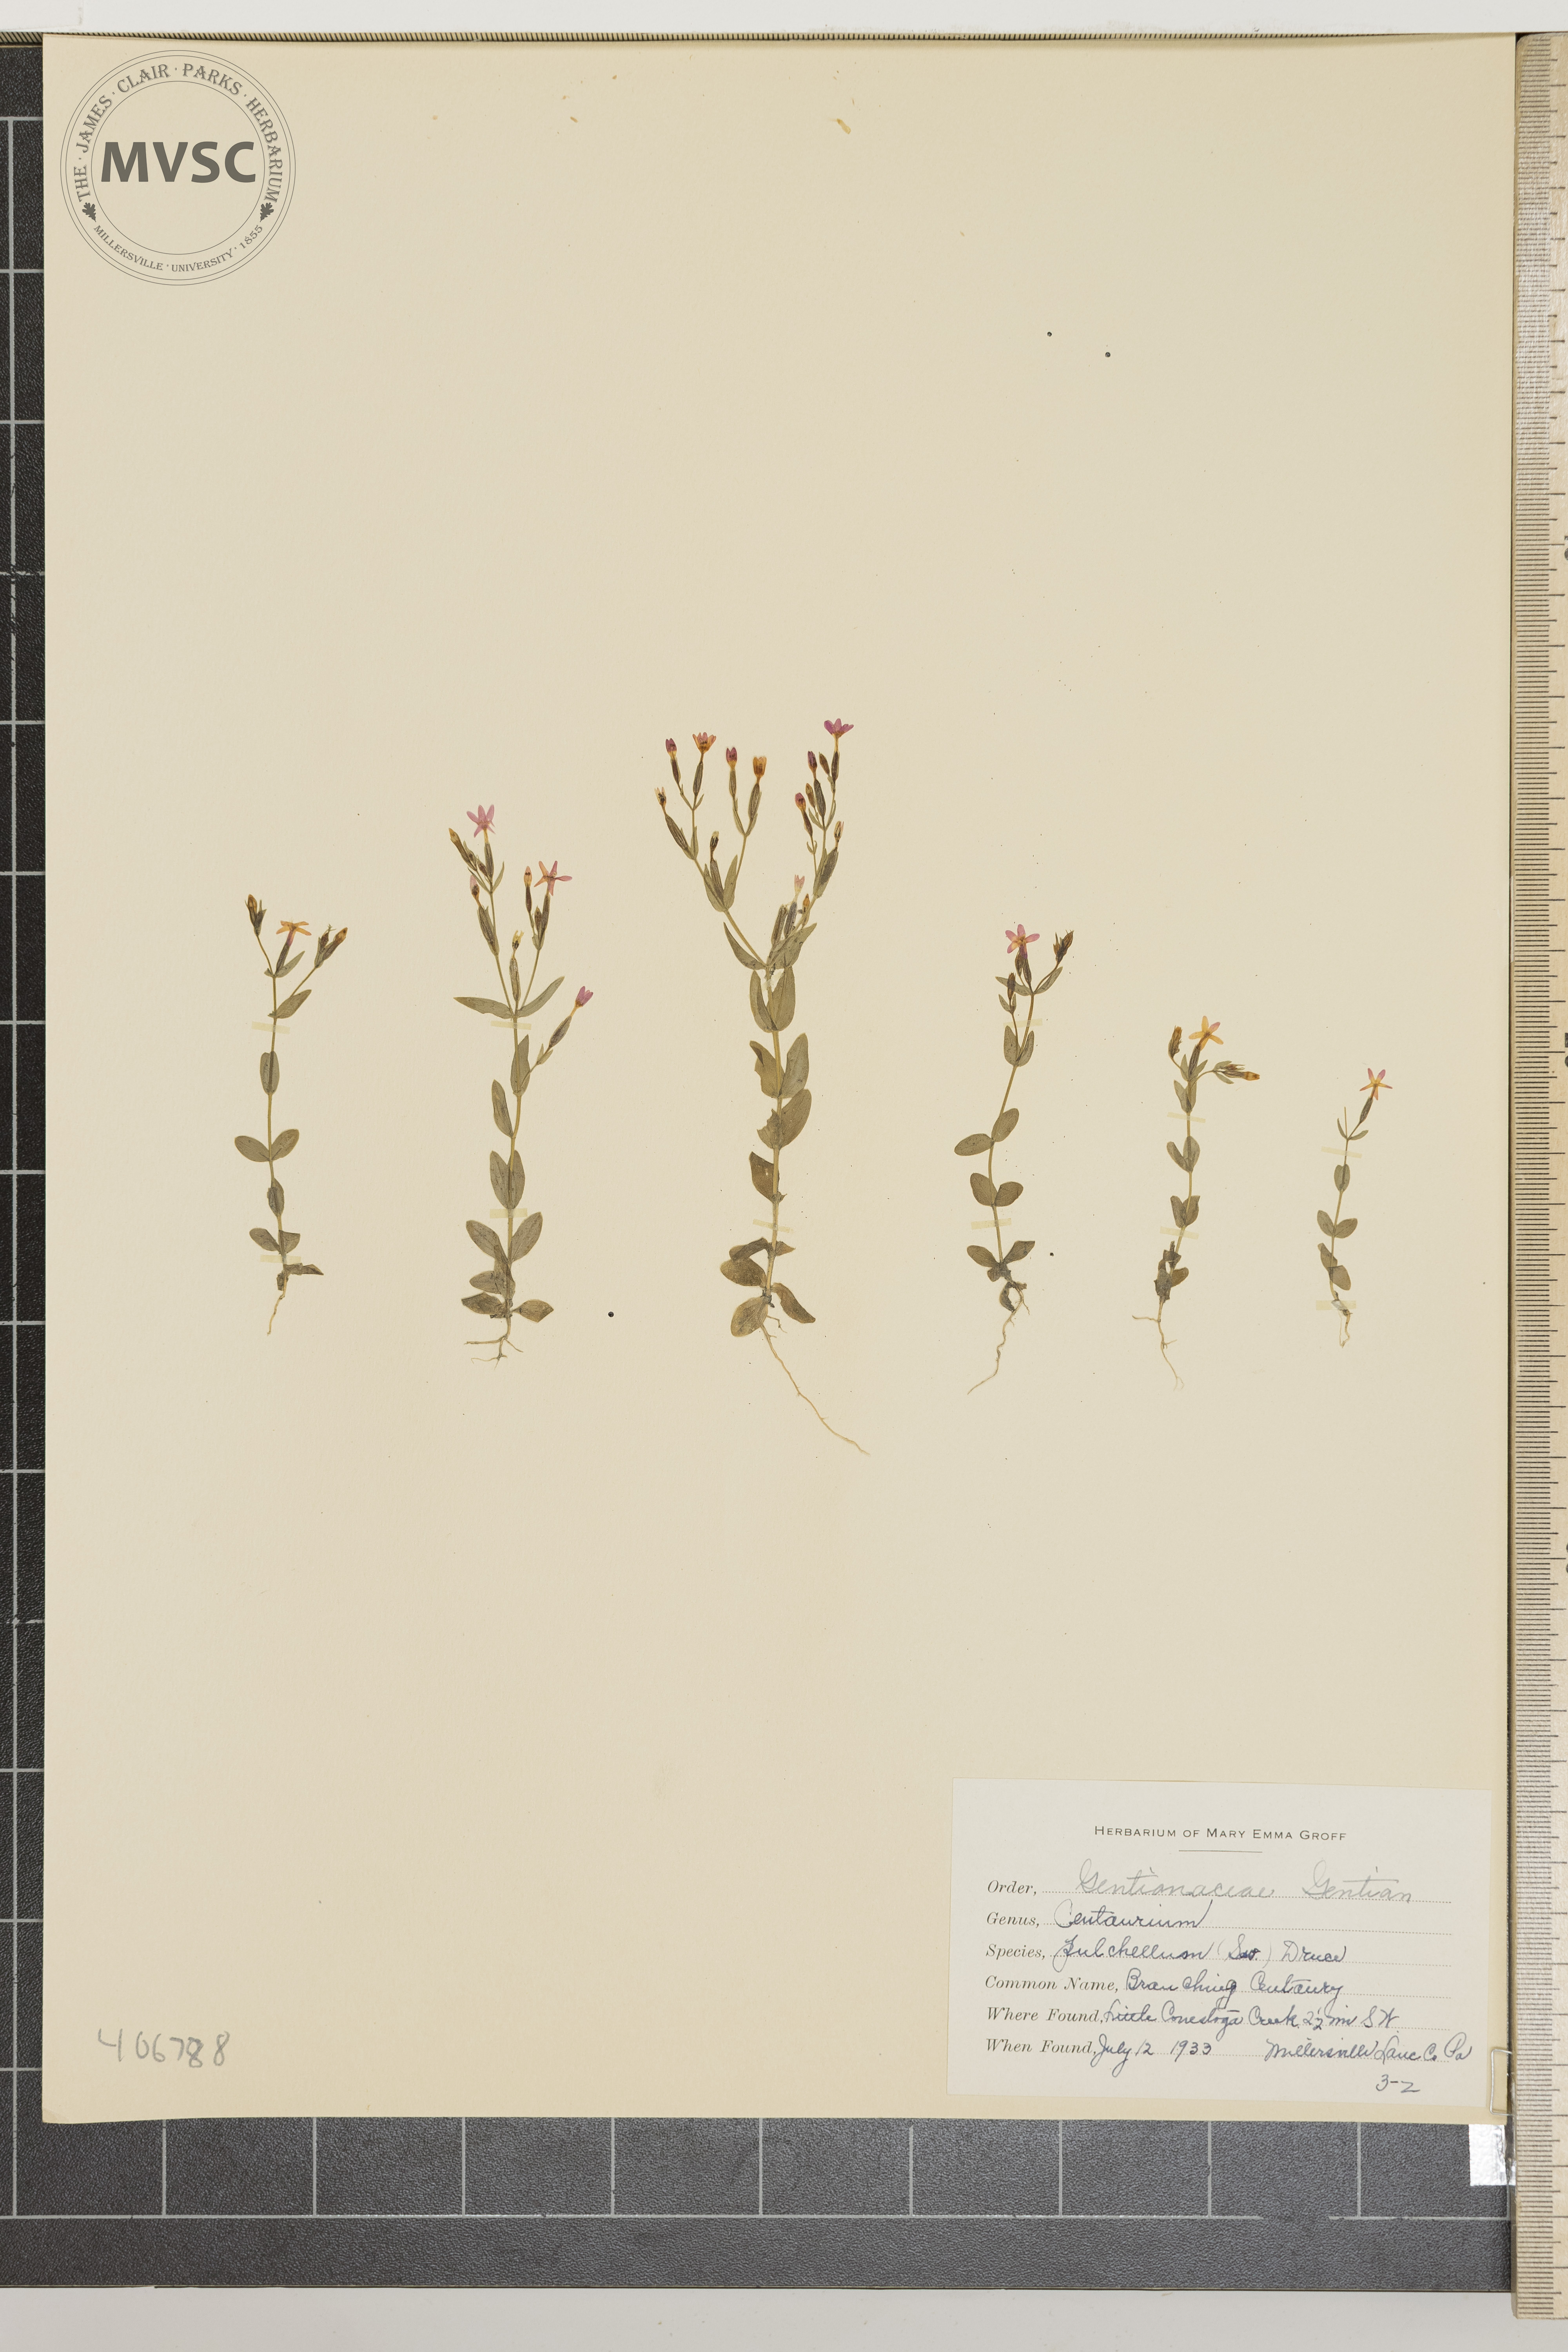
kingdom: Plantae
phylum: Tracheophyta
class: Magnoliopsida
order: Gentianales
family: Gentianaceae
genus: Centaurium
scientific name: Centaurium pulchellum
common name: Branching Centaury
